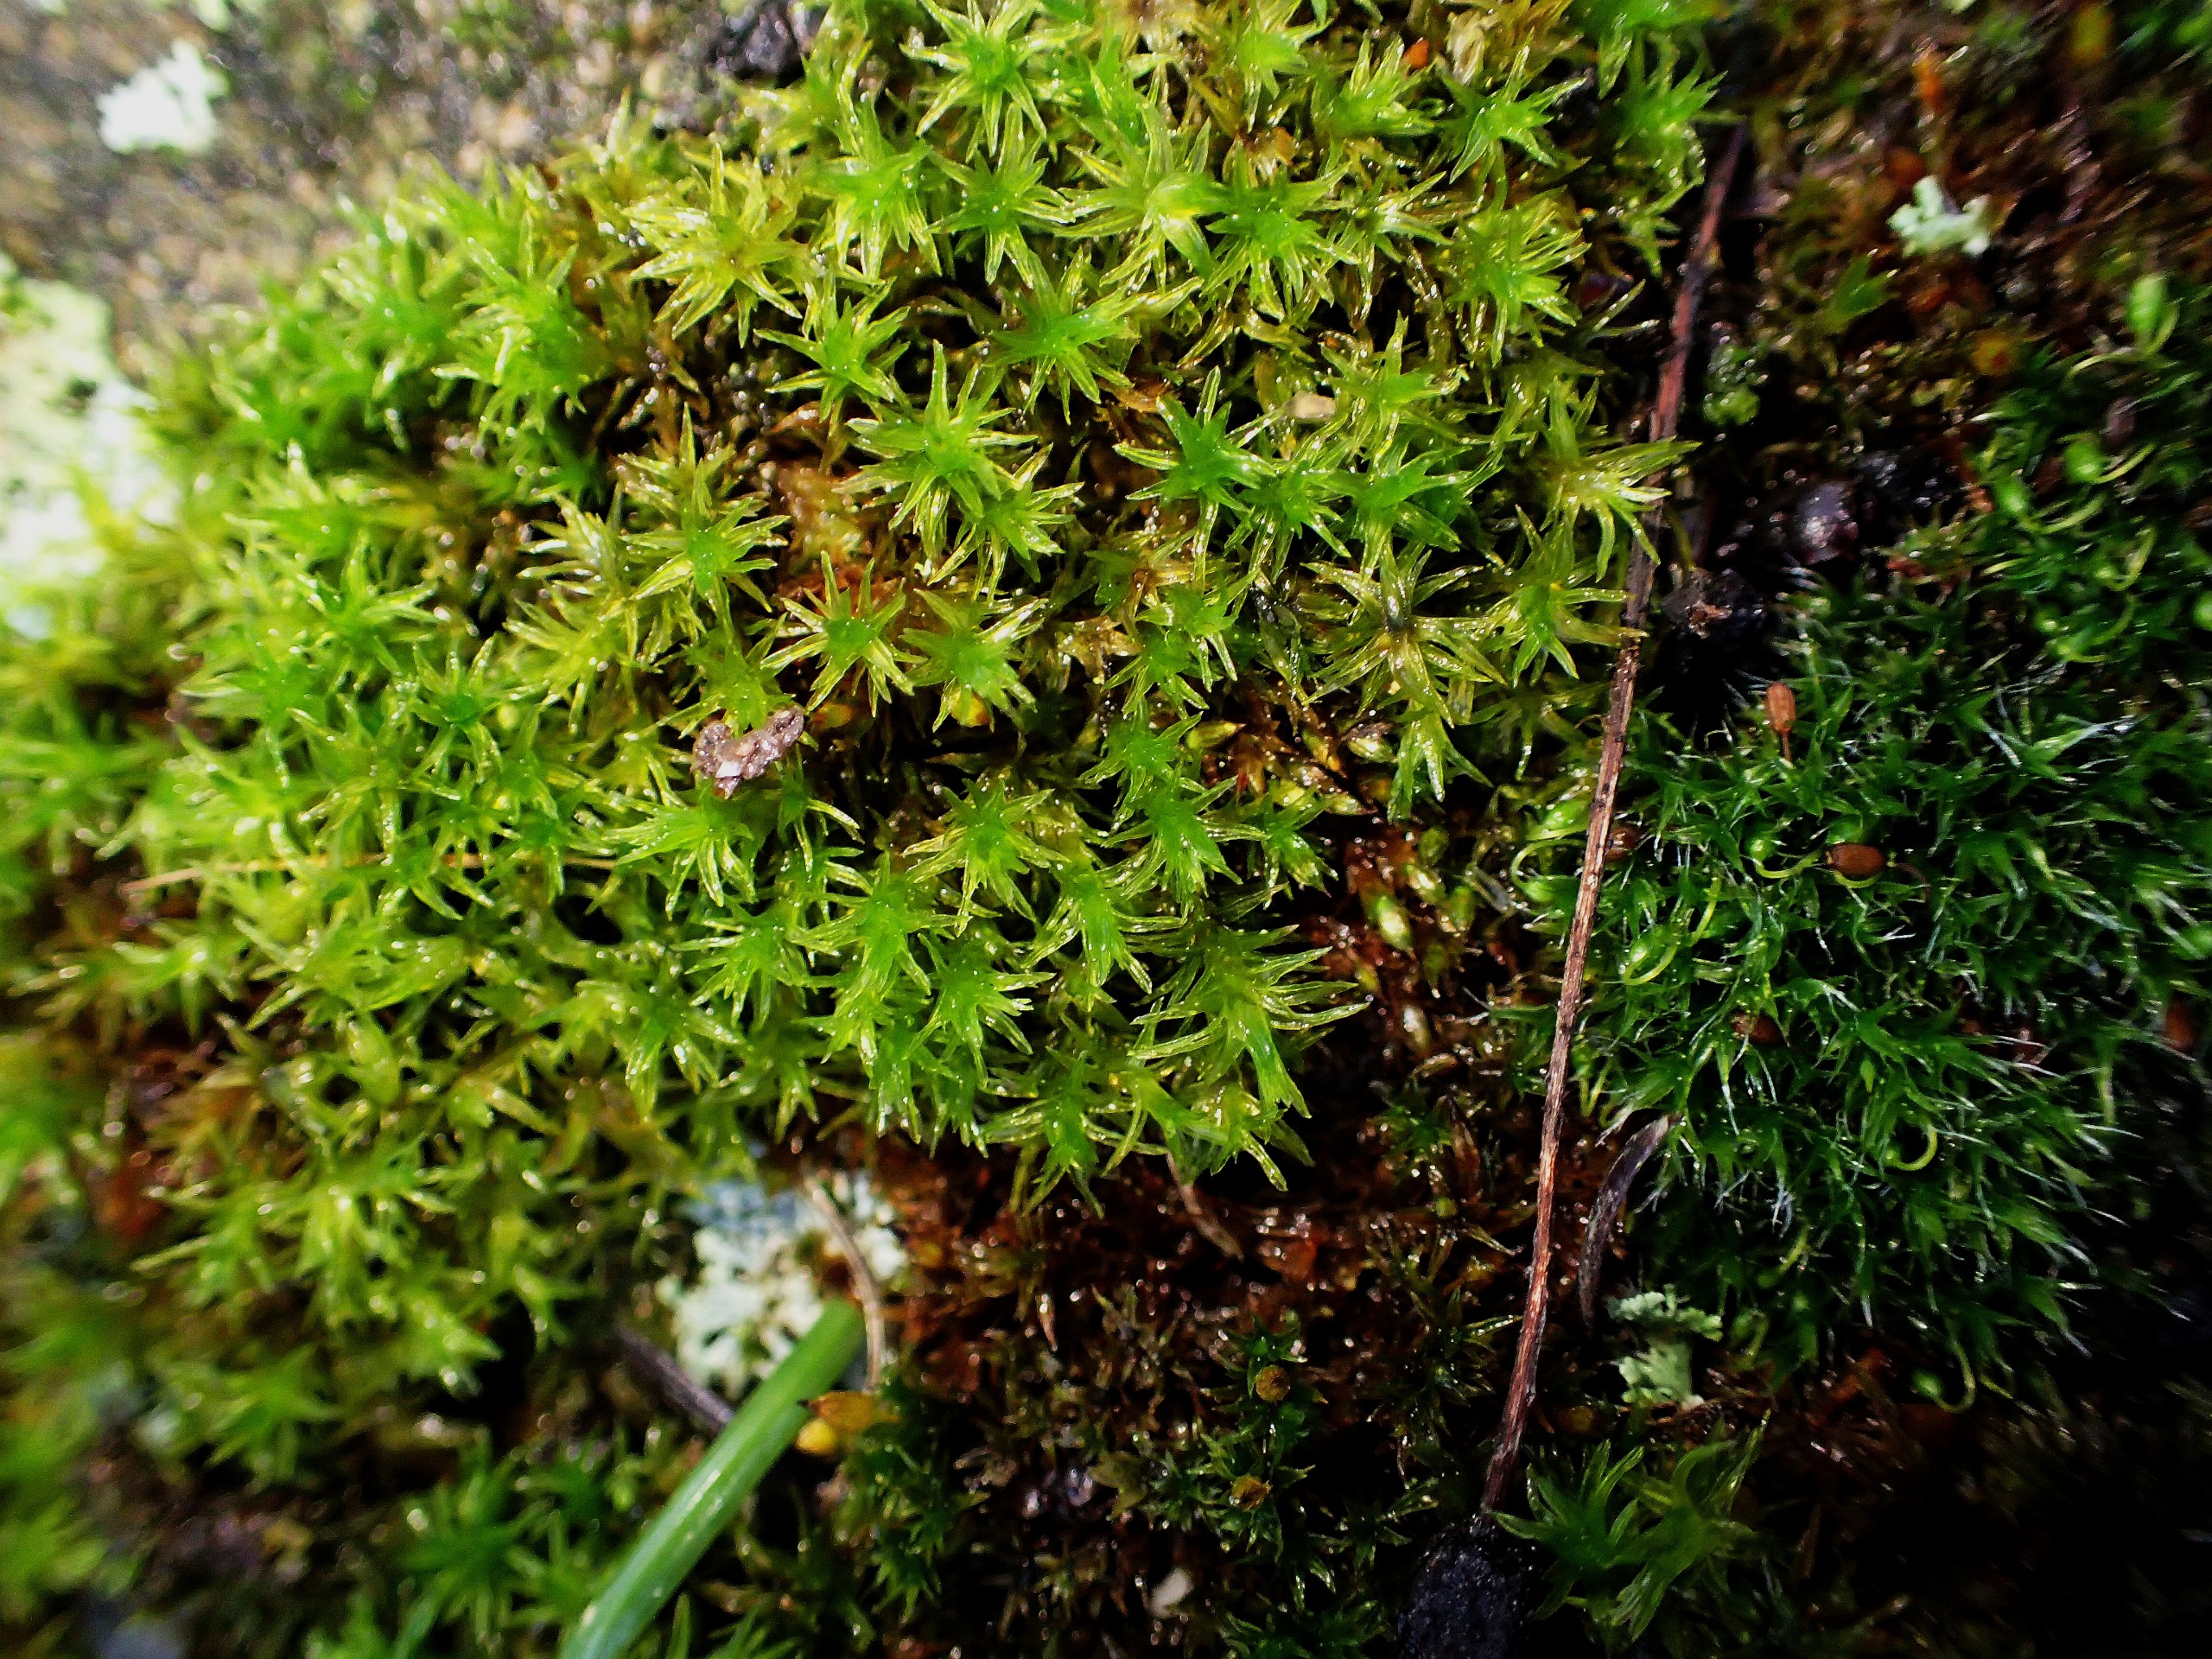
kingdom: Plantae
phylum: Bryophyta
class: Bryopsida
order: Orthotrichales
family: Orthotrichaceae
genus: Orthotrichum
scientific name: Orthotrichum
